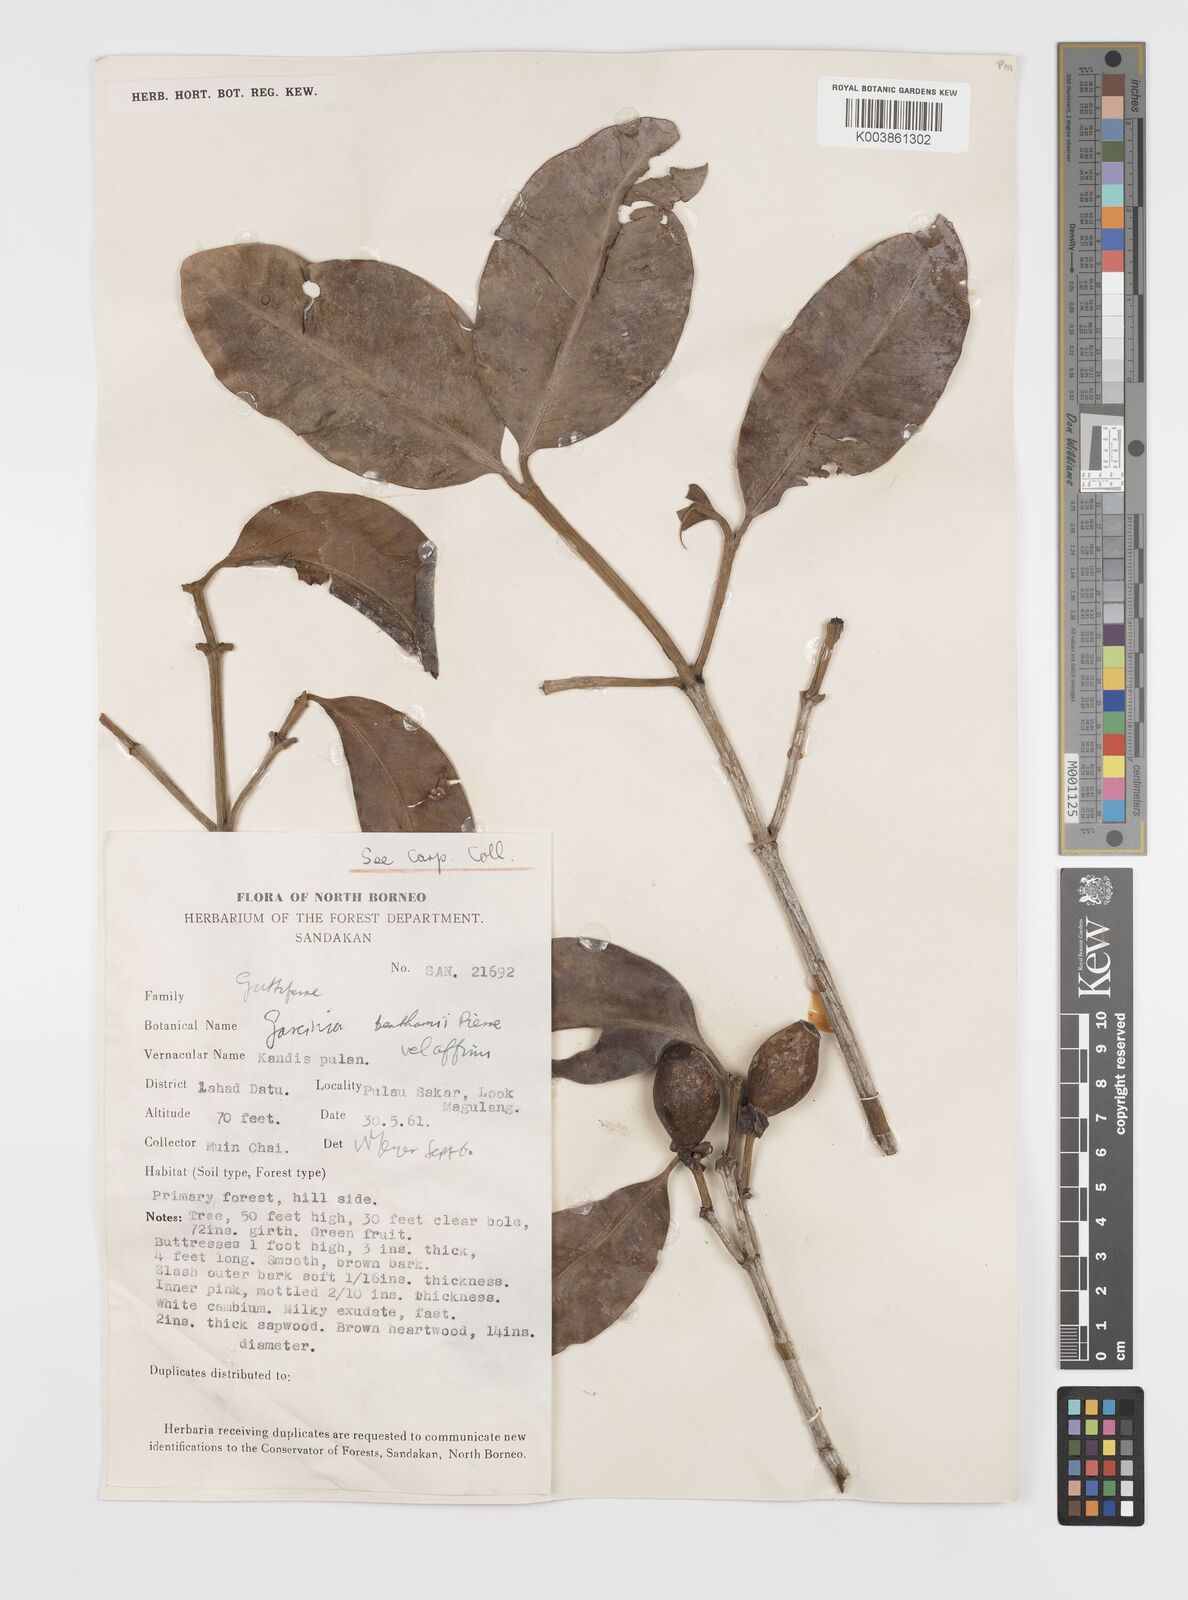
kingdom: Plantae
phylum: Tracheophyta
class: Magnoliopsida
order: Malpighiales
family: Clusiaceae
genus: Garcinia
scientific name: Garcinia sangudsangud
